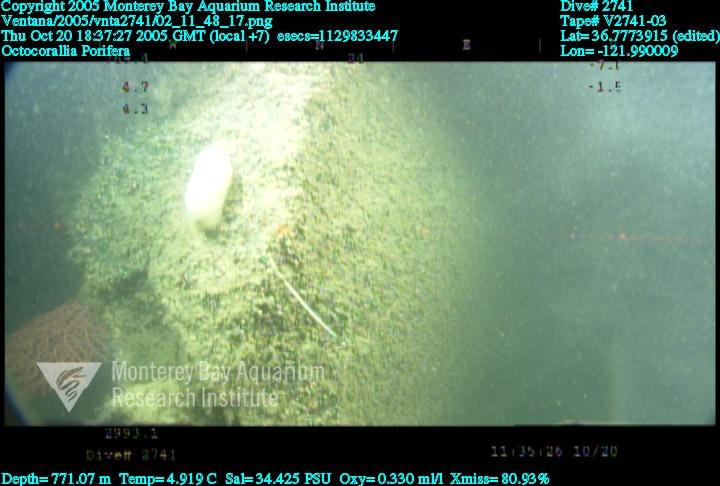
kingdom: Animalia
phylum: Porifera
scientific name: Porifera
